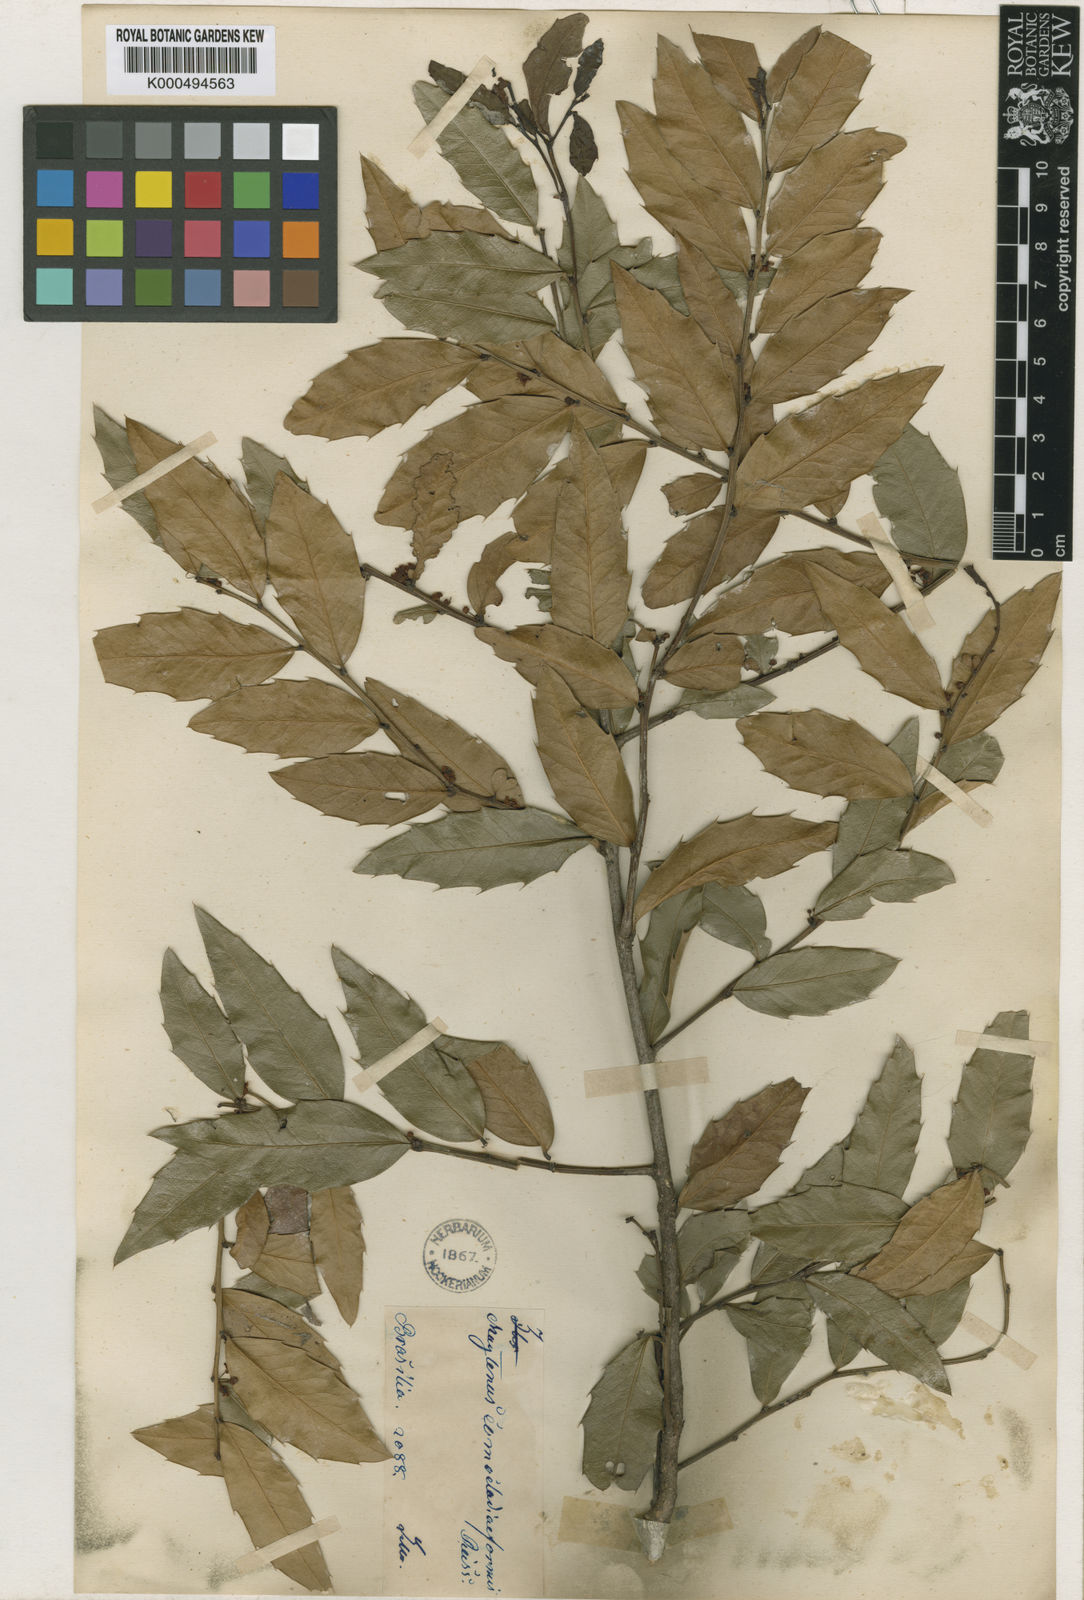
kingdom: Plantae
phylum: Tracheophyta
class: Magnoliopsida
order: Celastrales
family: Celastraceae
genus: Maytenus
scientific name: Maytenus
